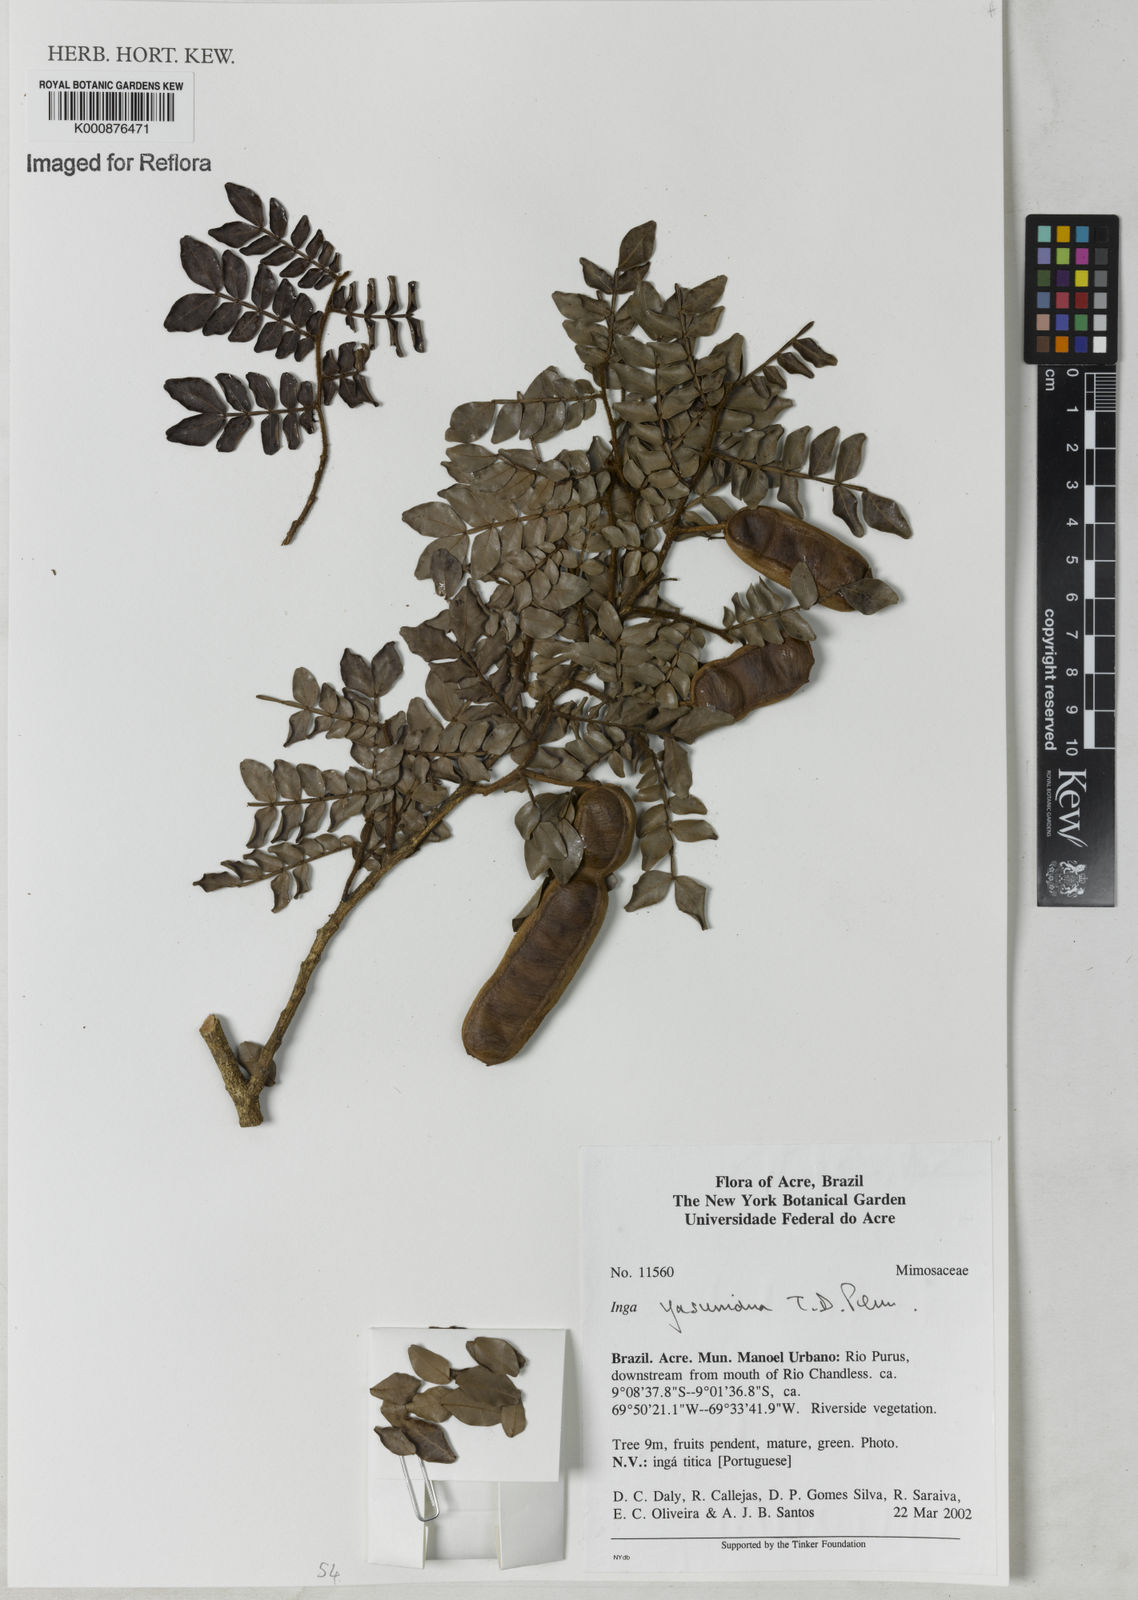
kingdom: Plantae
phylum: Tracheophyta
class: Magnoliopsida
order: Fabales
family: Fabaceae
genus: Inga
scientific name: Inga yasuniana
